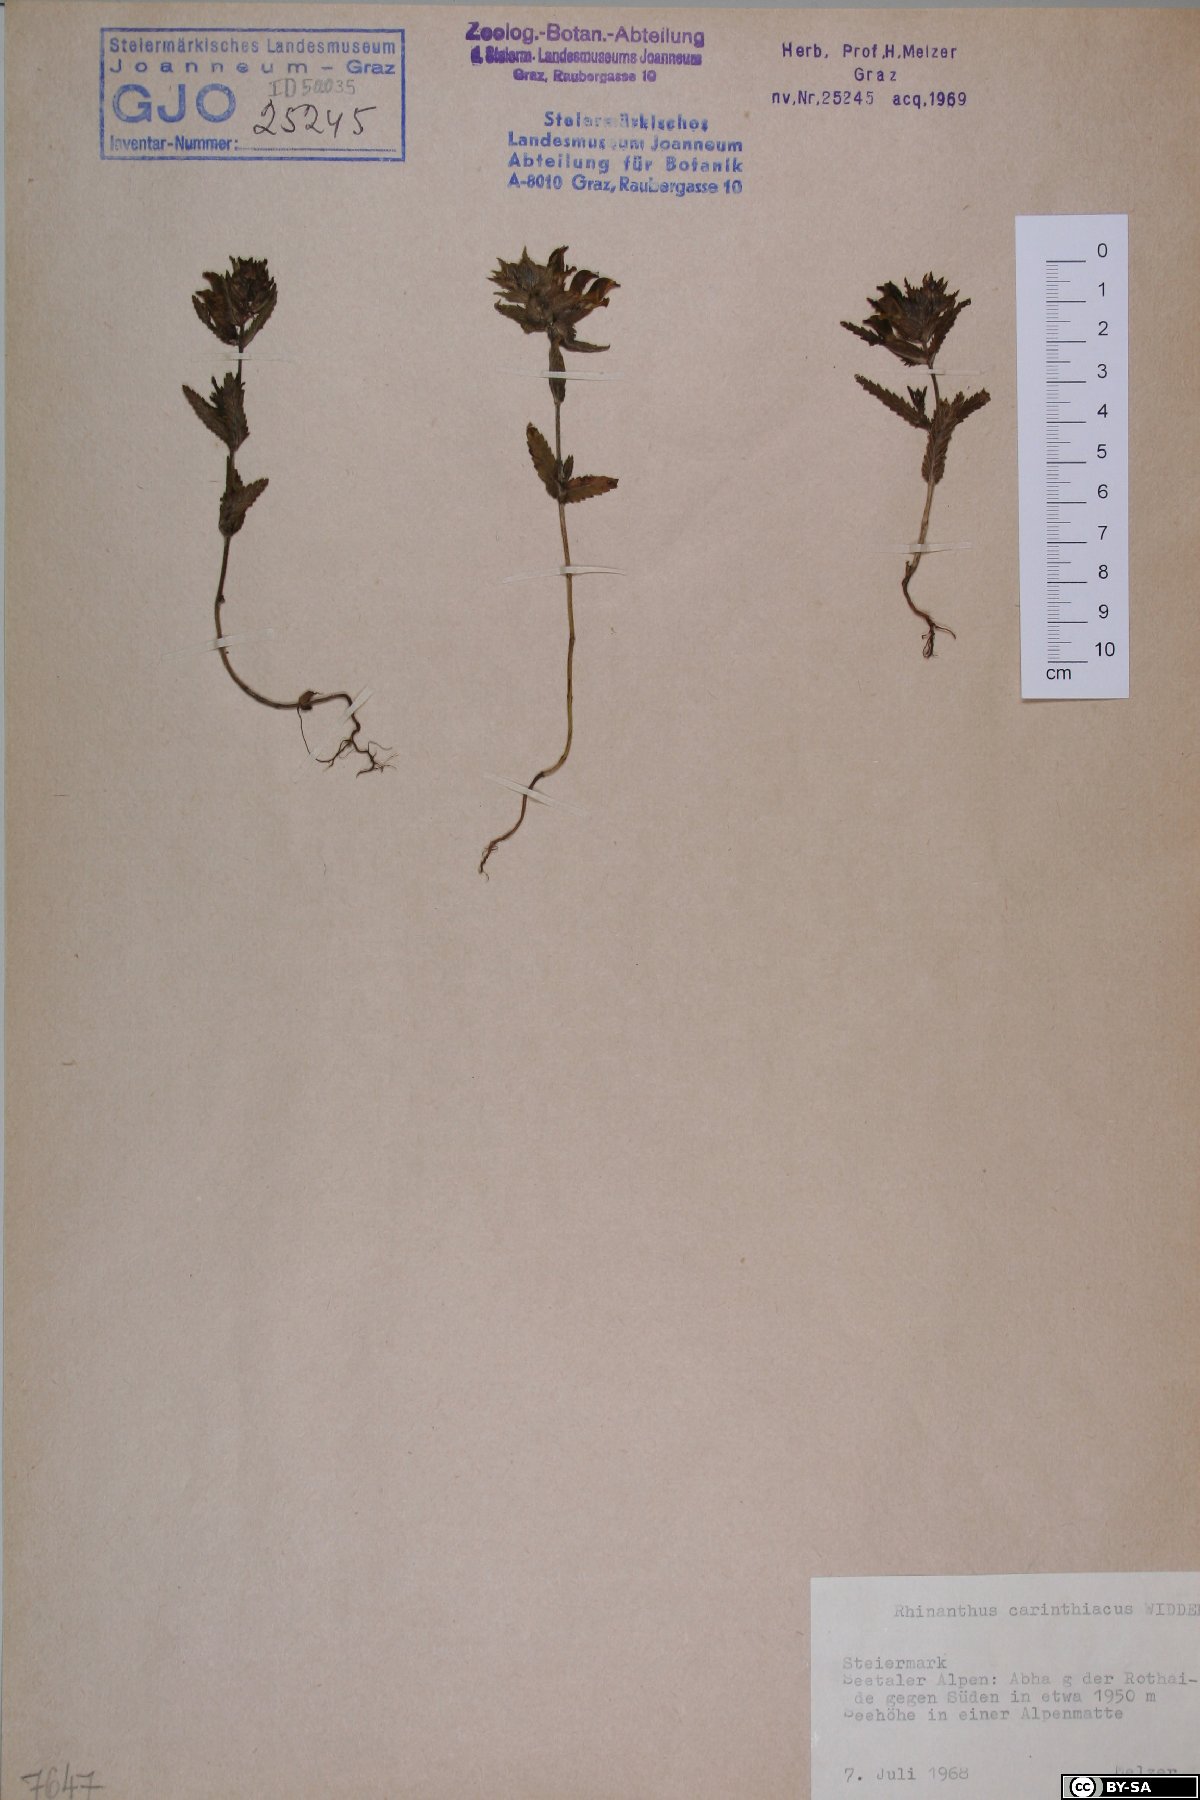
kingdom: Plantae
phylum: Tracheophyta
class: Magnoliopsida
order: Lamiales
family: Orobanchaceae
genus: Rhinanthus
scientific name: Rhinanthus carinthiacus
